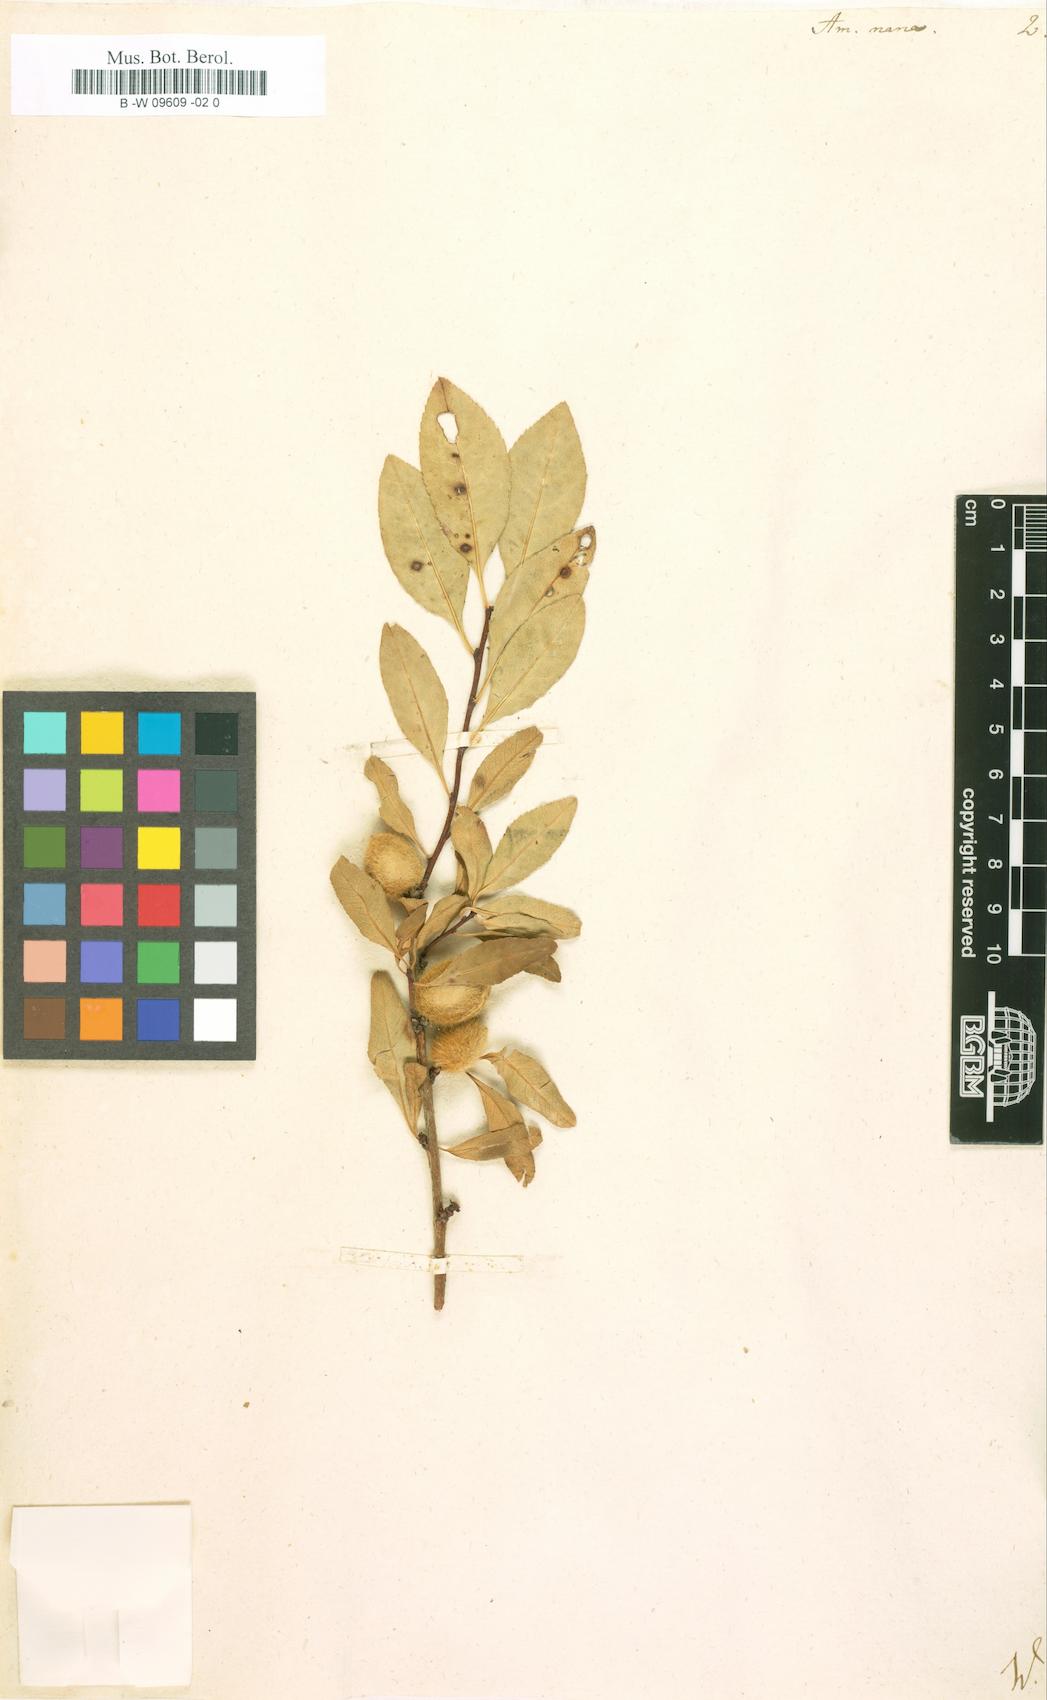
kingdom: Plantae
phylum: Tracheophyta
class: Magnoliopsida
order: Rosales
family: Rosaceae
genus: Prunus
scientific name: Prunus tenella
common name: Dwarf russian almond
